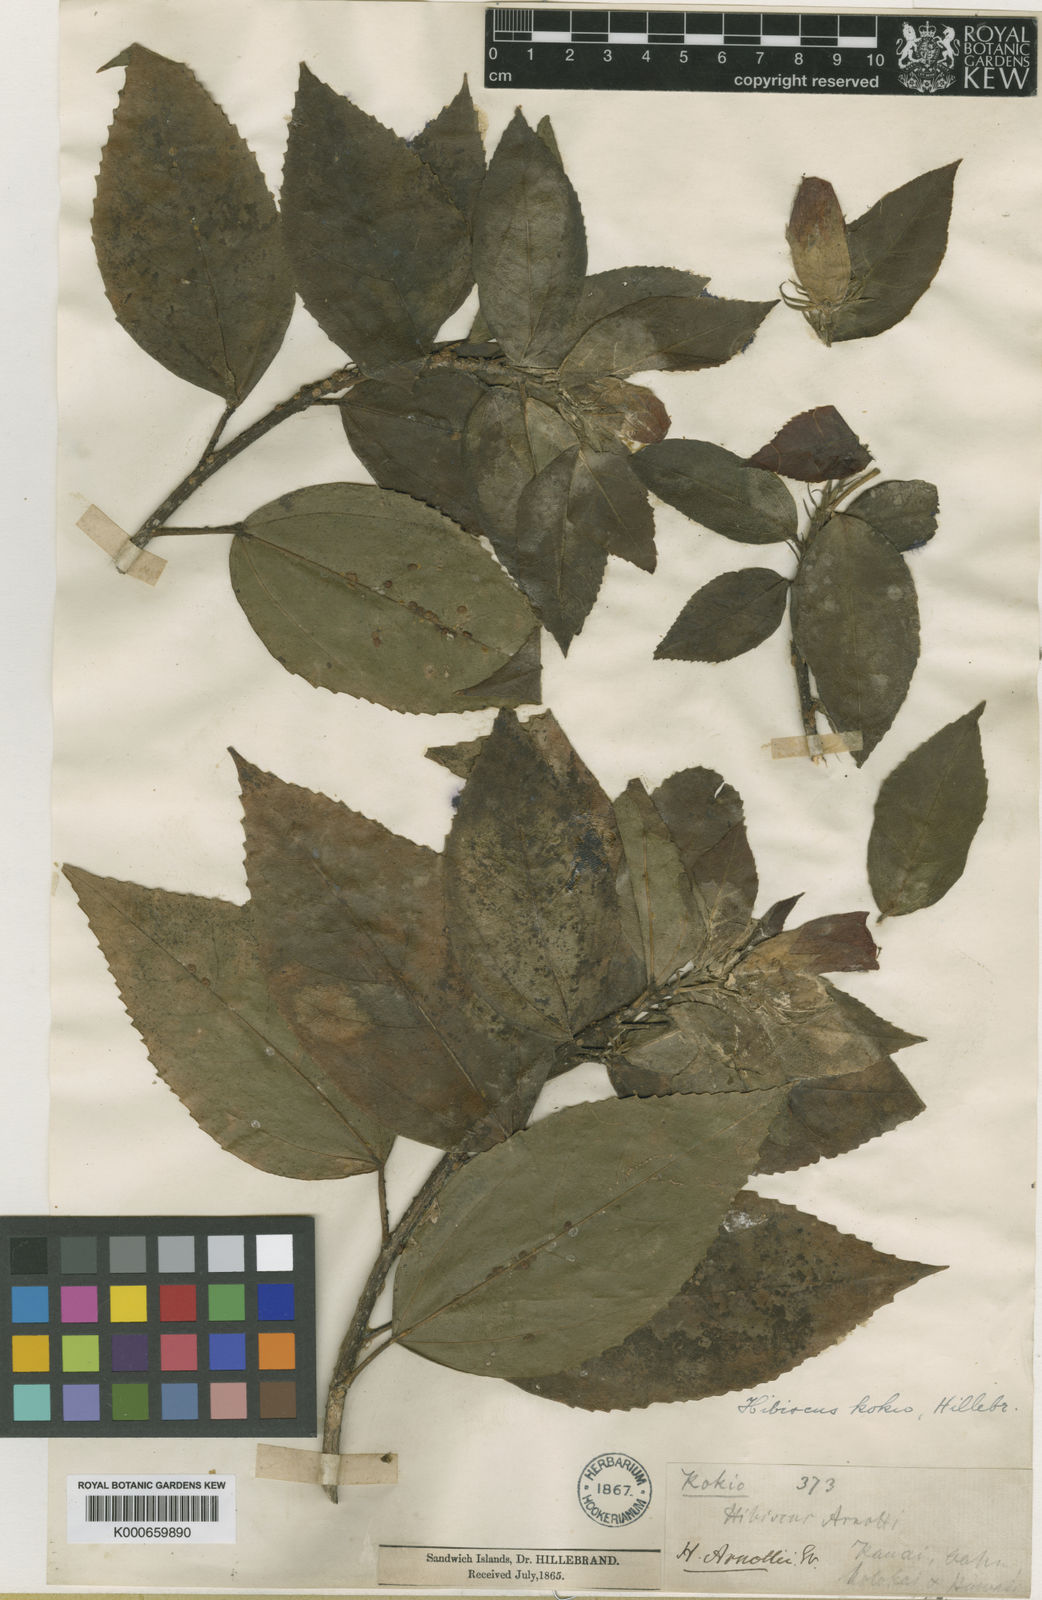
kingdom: Plantae
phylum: Tracheophyta
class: Magnoliopsida
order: Malvales
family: Malvaceae
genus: Hibiscus
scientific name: Hibiscus kokio
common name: Saint john's rosemallow
